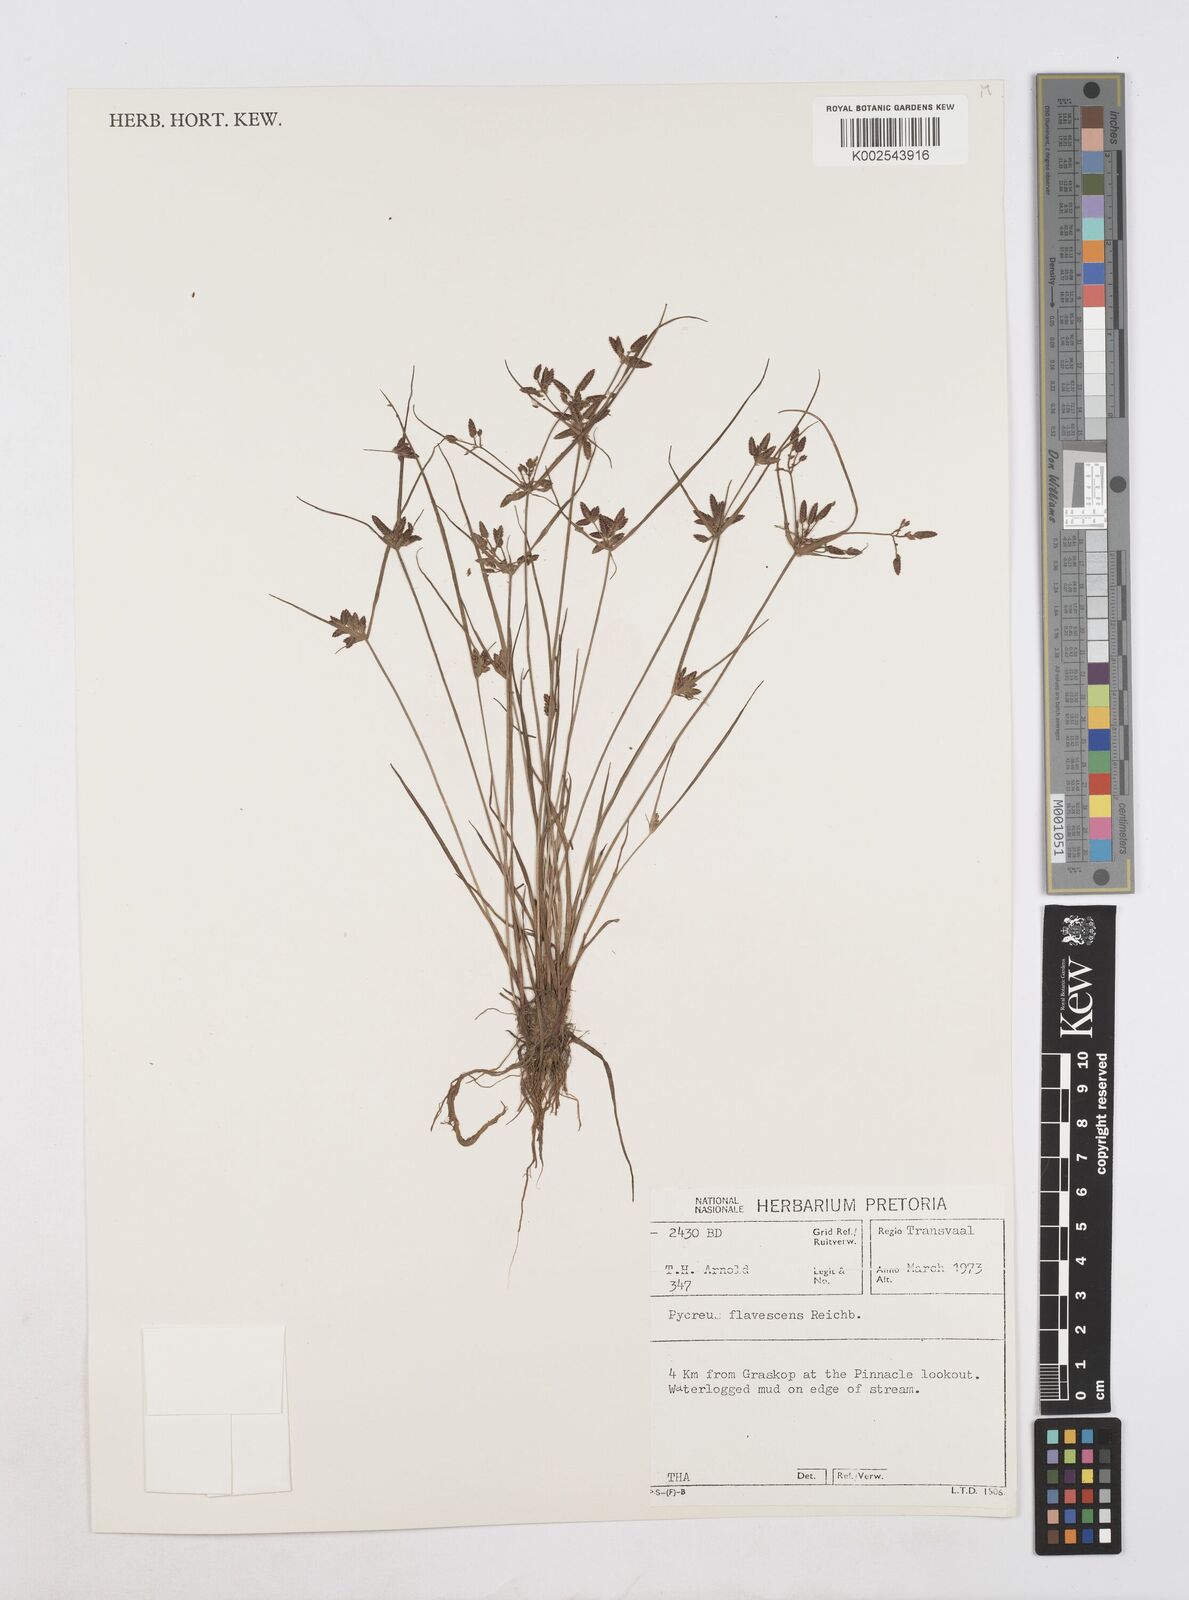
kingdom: Plantae
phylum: Tracheophyta
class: Liliopsida
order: Poales
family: Cyperaceae
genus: Cyperus
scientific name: Cyperus flavescens
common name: Yellow galingale
